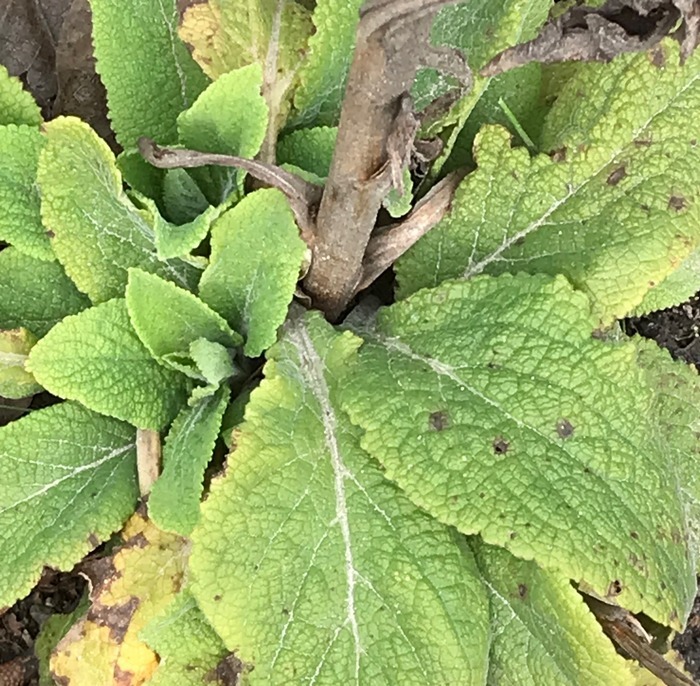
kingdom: Plantae
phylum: Tracheophyta
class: Magnoliopsida
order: Lamiales
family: Plantaginaceae
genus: Digitalis
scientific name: Digitalis purpurea
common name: Almindelig fingerbøl
